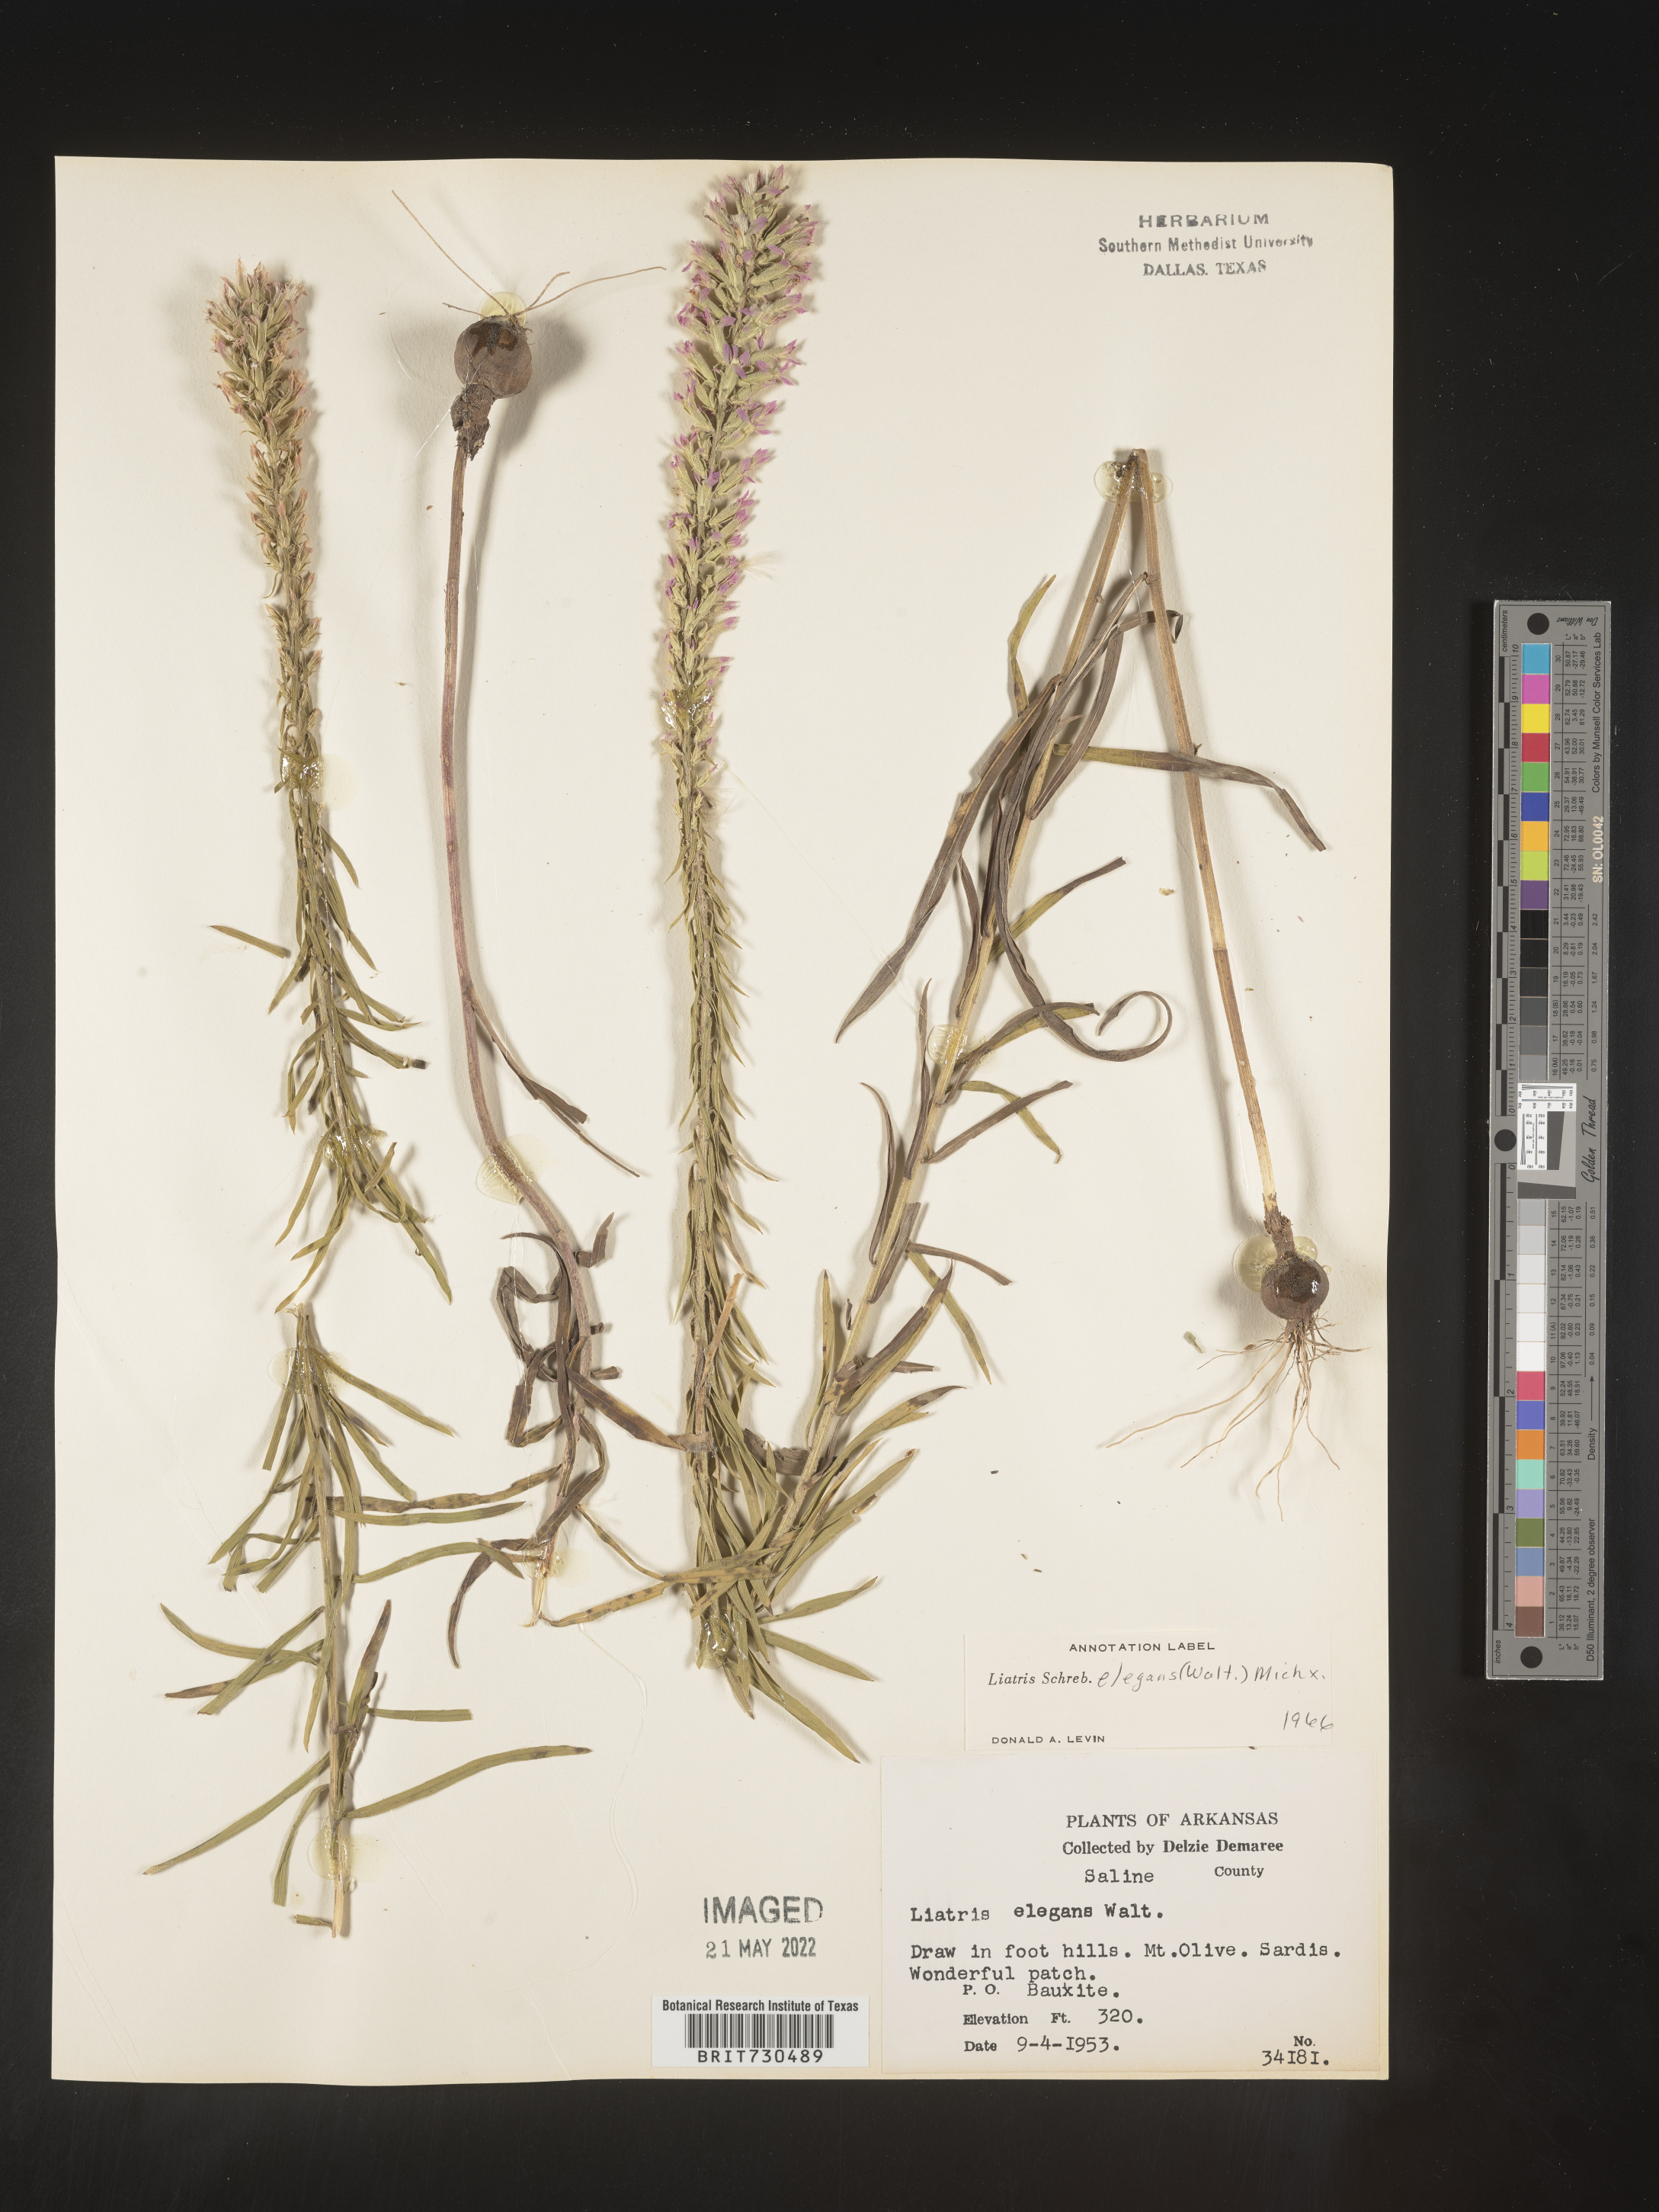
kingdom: Plantae
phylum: Tracheophyta
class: Magnoliopsida
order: Asterales
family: Asteraceae
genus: Liatris
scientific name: Liatris elegans
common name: Pinkscale gayfeather
